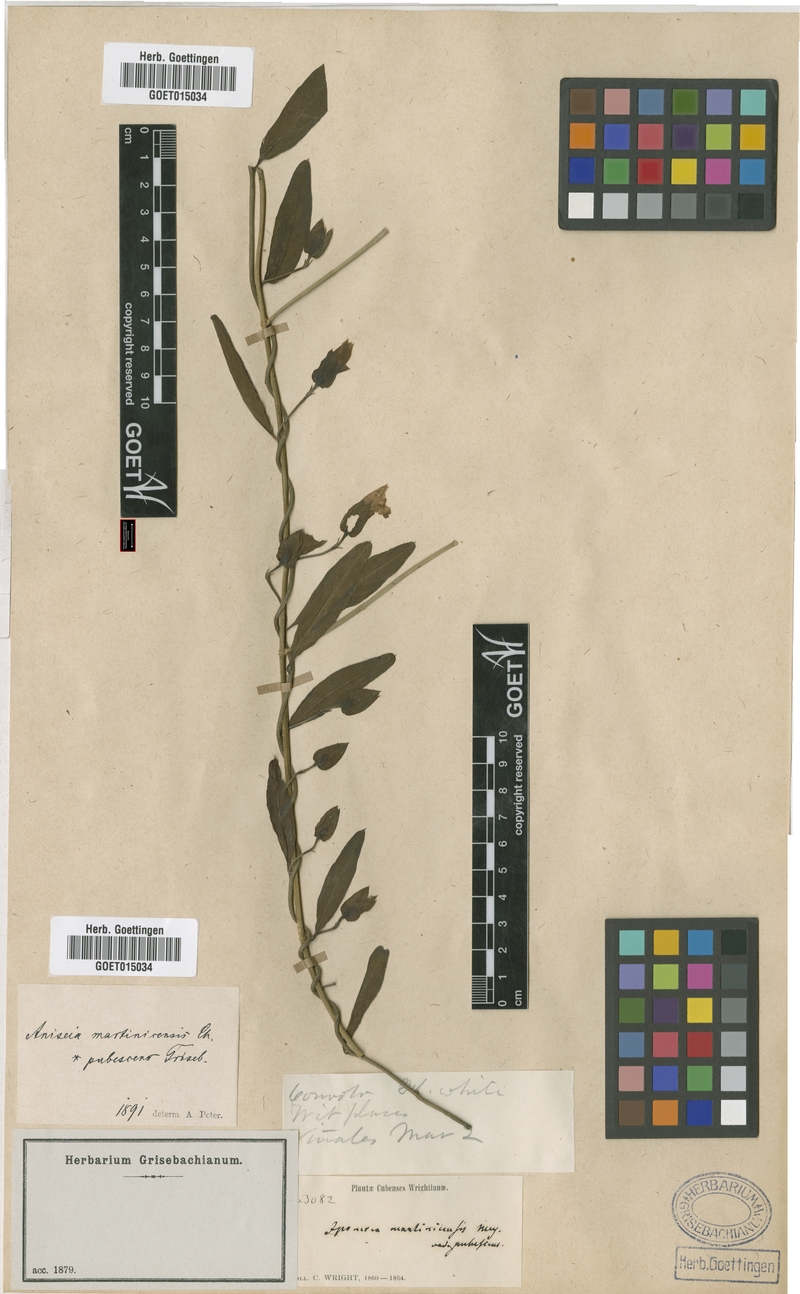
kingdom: Plantae
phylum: Tracheophyta
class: Magnoliopsida
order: Solanales
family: Convolvulaceae
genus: Aniseia
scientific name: Aniseia martinicensis
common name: Kulayadambu
